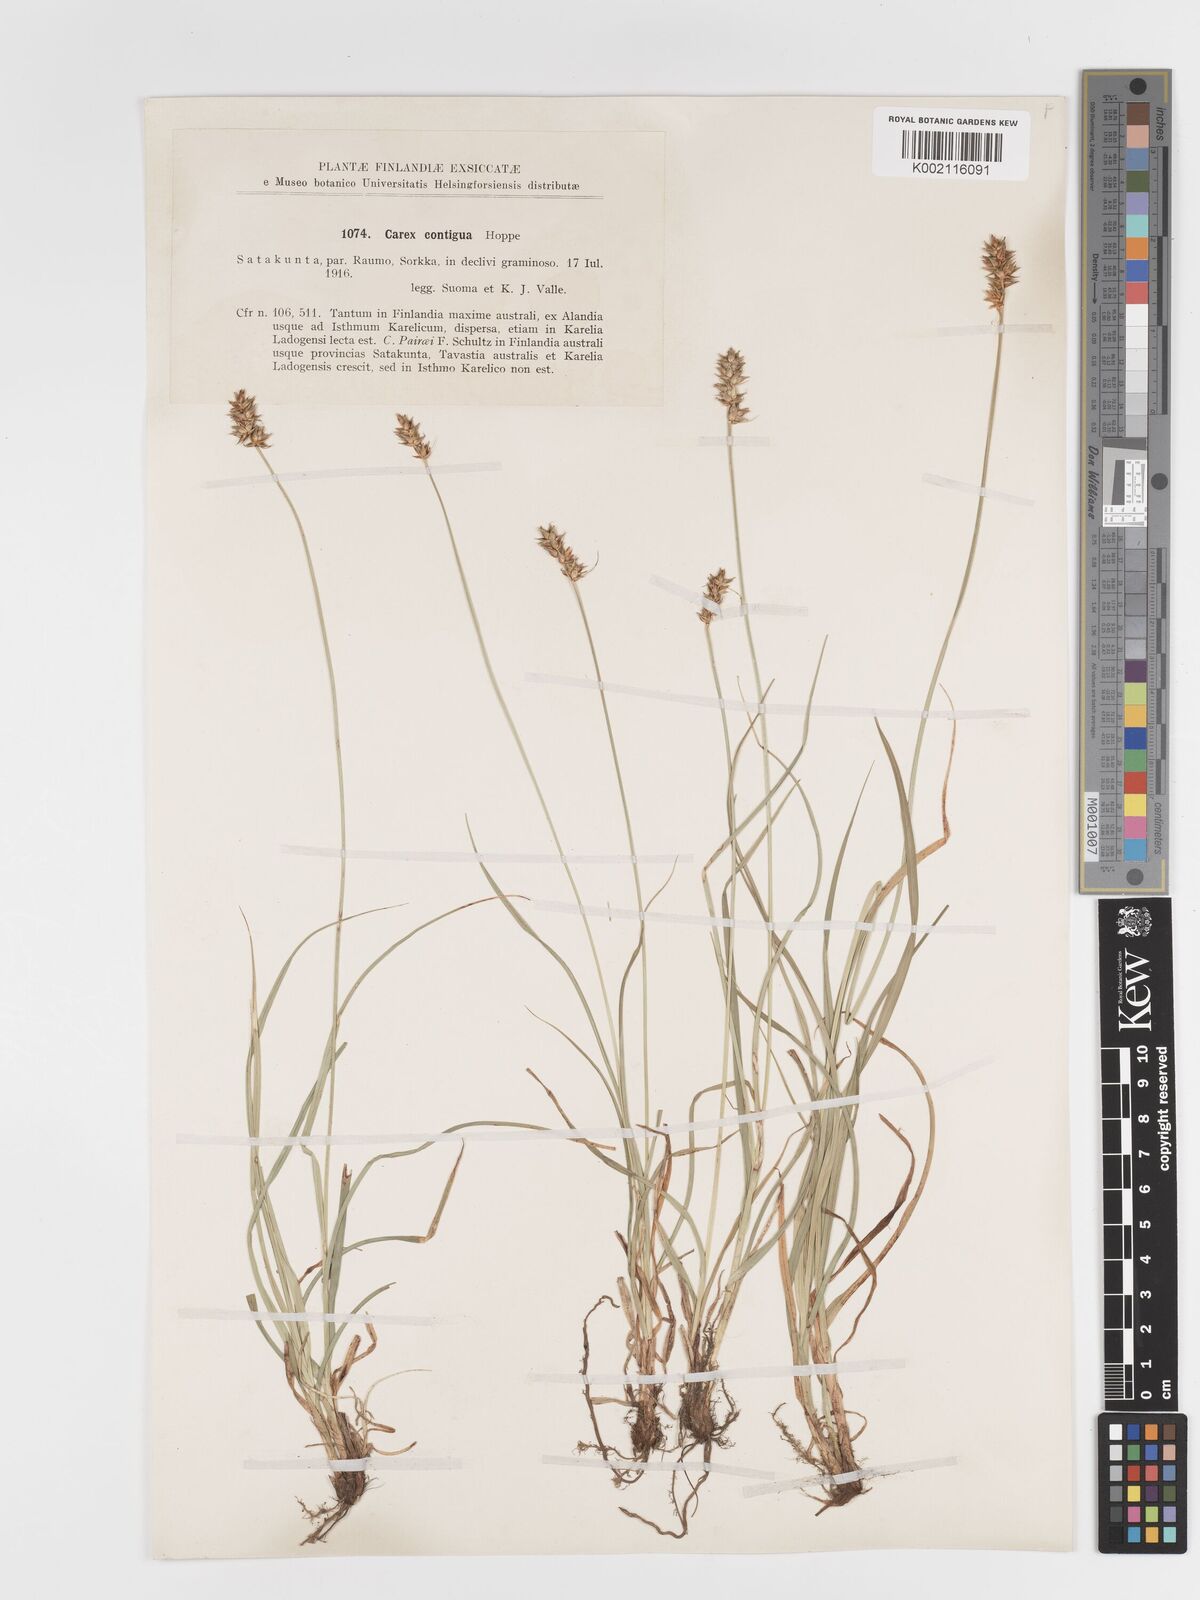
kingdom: Plantae
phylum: Tracheophyta
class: Liliopsida
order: Poales
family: Cyperaceae
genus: Carex
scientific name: Carex spicata
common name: Spiked sedge
